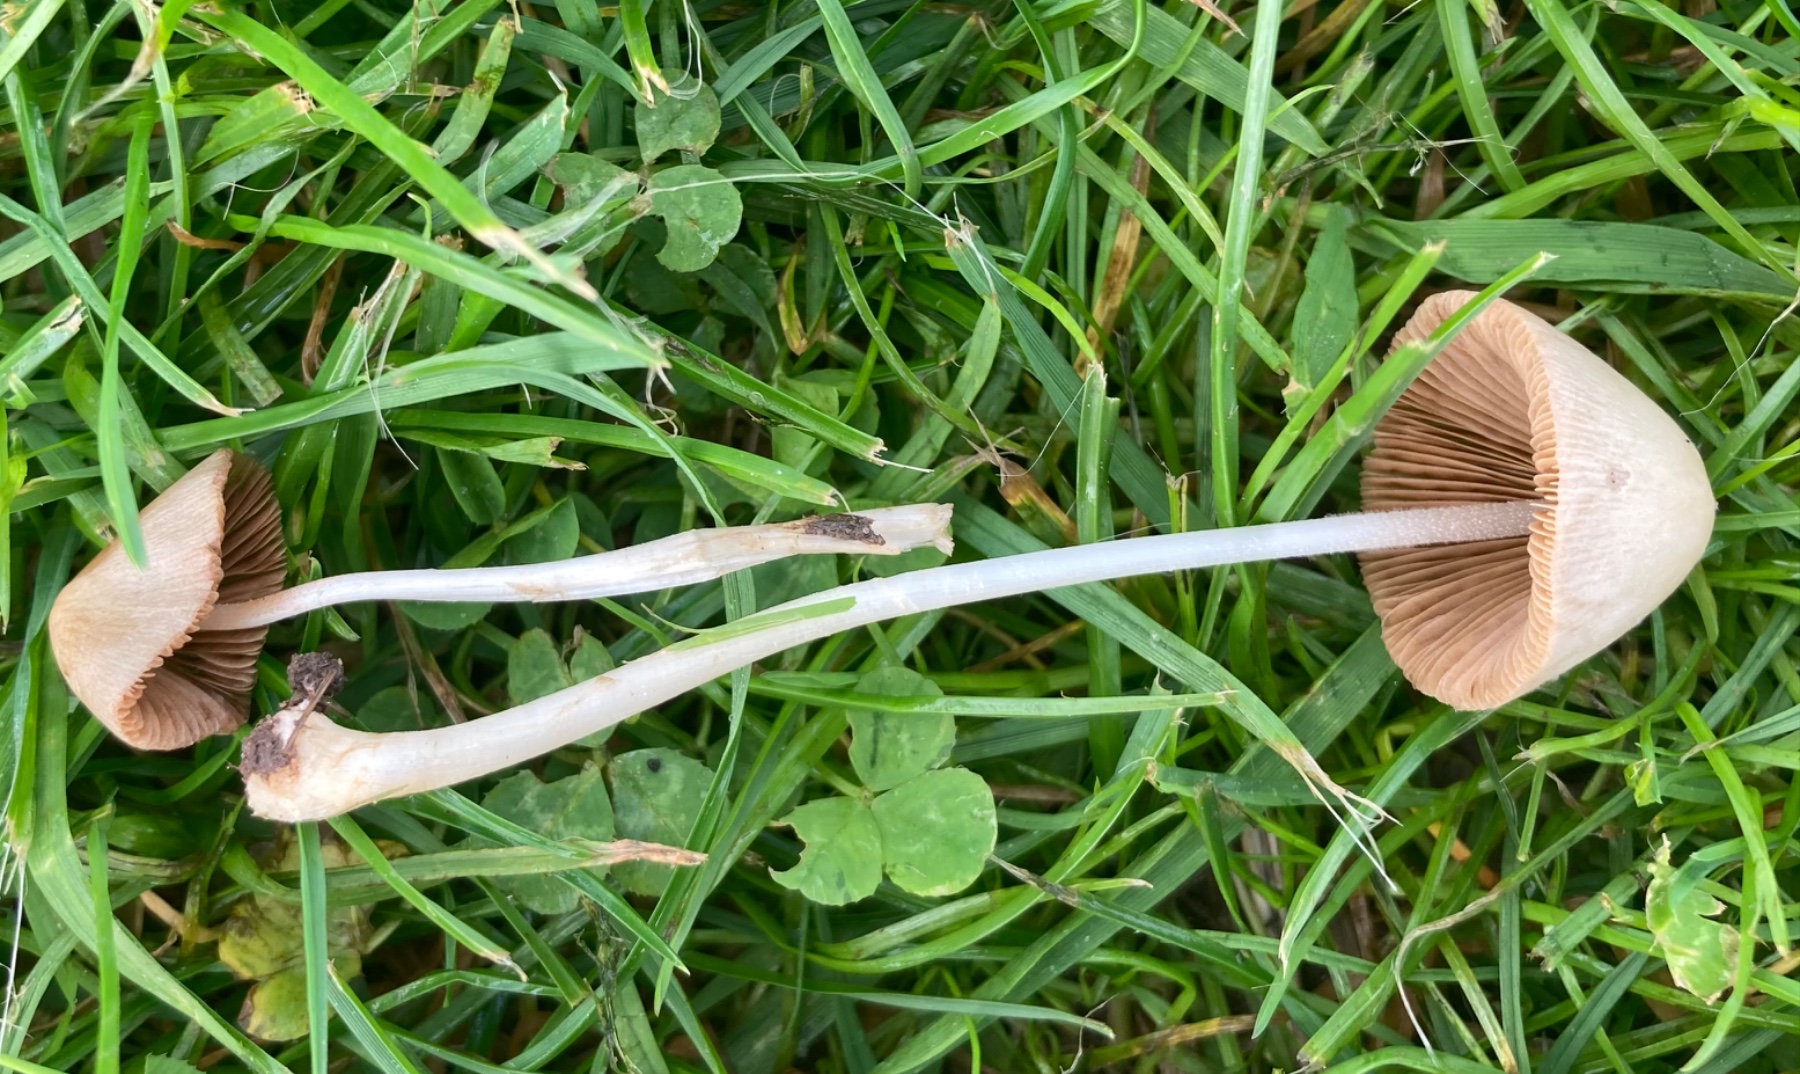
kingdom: Fungi
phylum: Basidiomycota
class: Agaricomycetes
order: Agaricales
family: Bolbitiaceae
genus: Conocybe
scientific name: Conocybe
